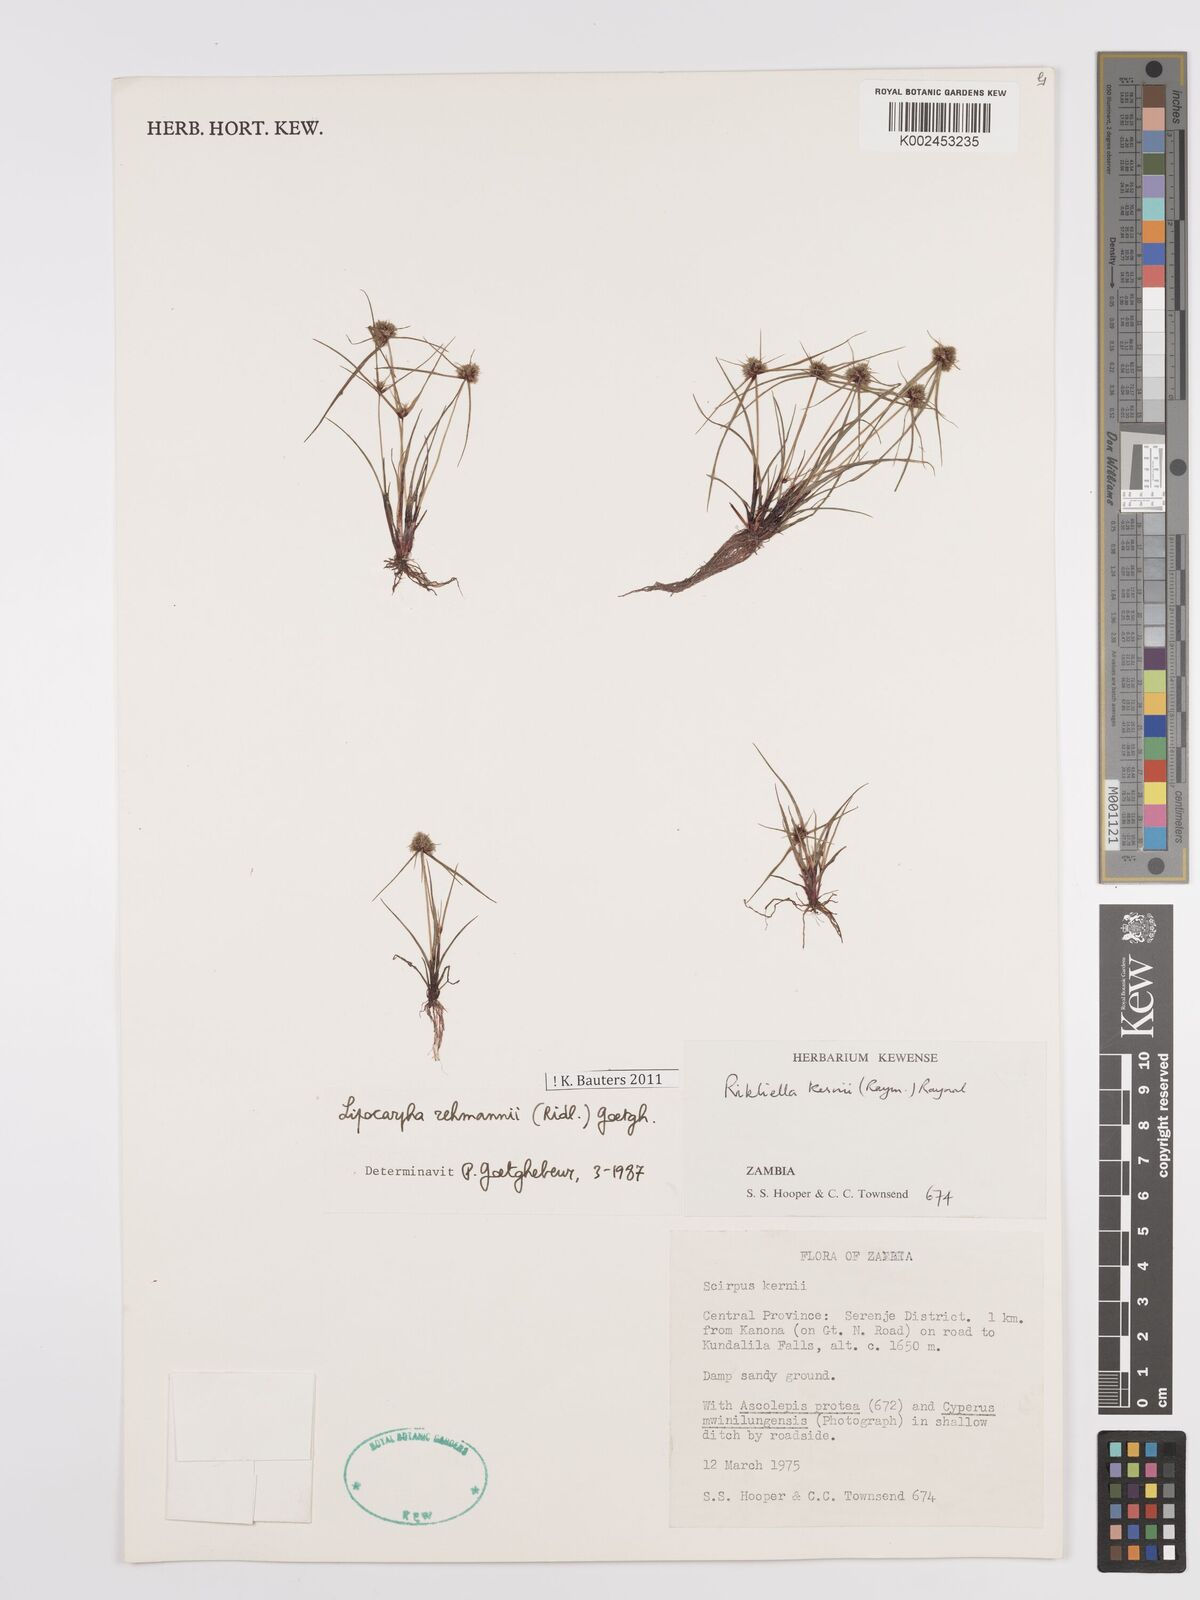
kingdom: Plantae
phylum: Tracheophyta
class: Liliopsida
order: Poales
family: Cyperaceae
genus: Cyperus
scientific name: Cyperus sanguinolentus
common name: Purpleglume flatsedge
